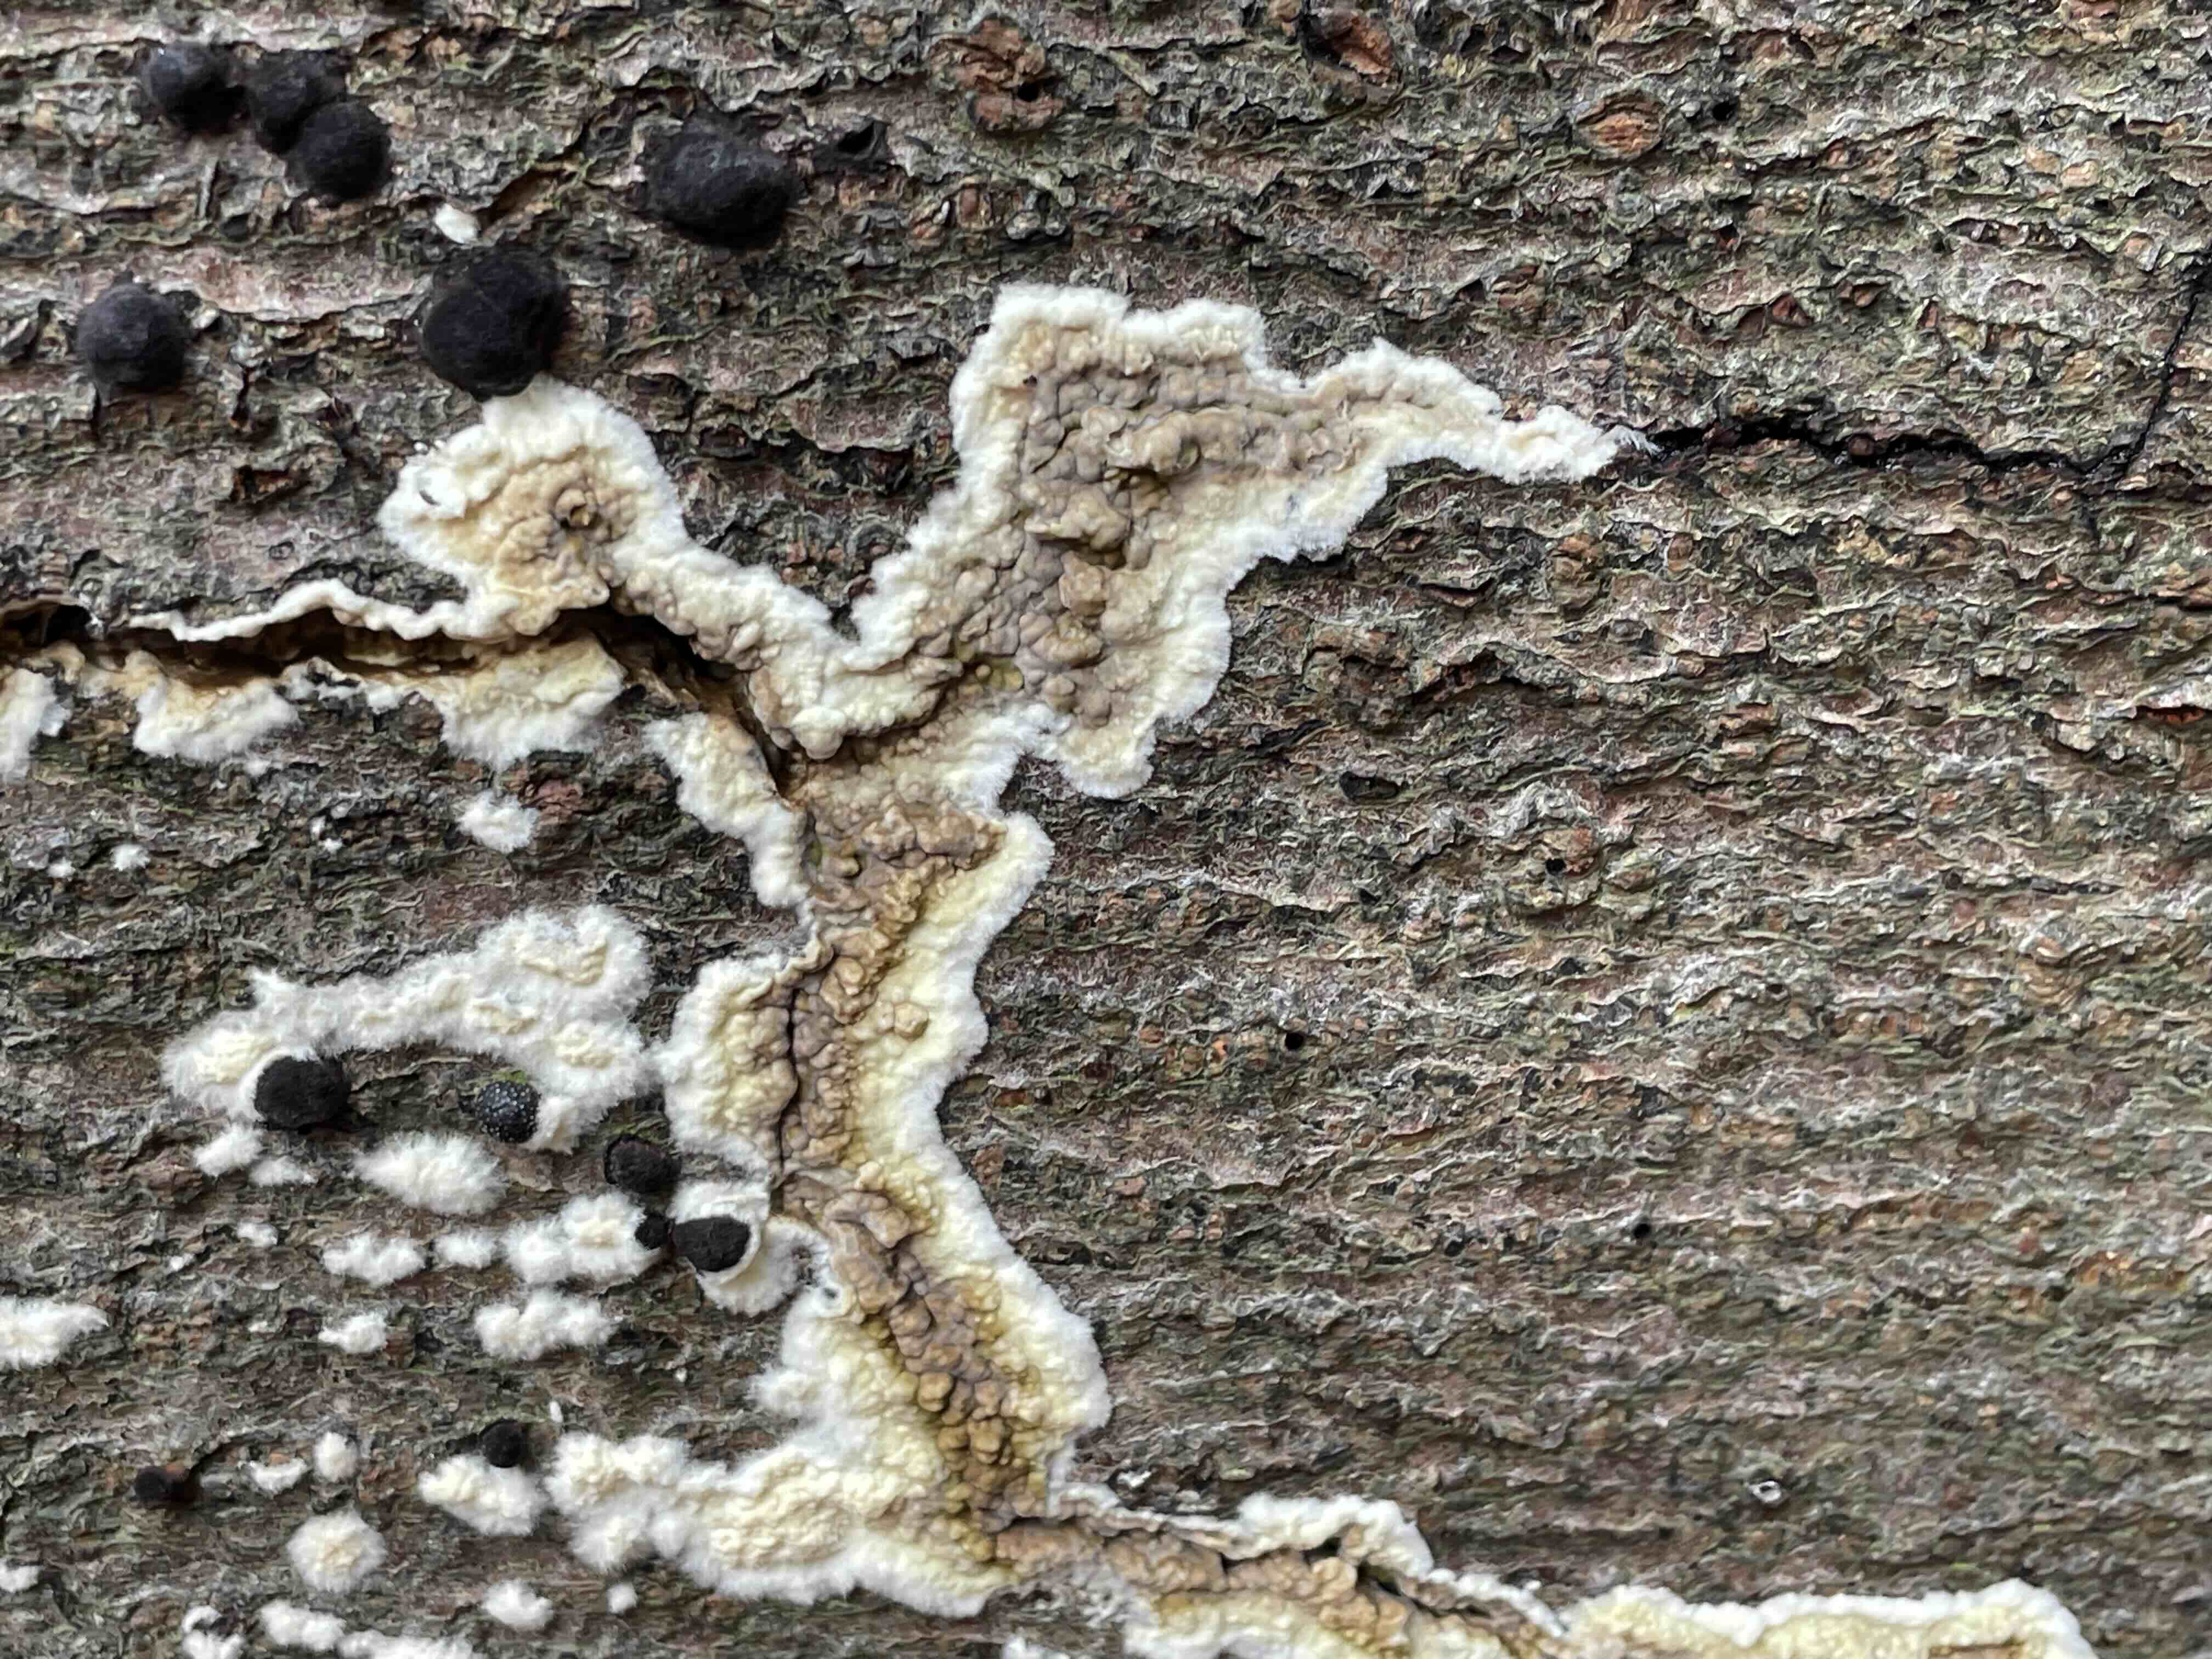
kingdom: Fungi
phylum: Basidiomycota
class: Agaricomycetes
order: Boletales
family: Coniophoraceae
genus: Coniophora
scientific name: Coniophora puteana
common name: gul tømmersvamp
